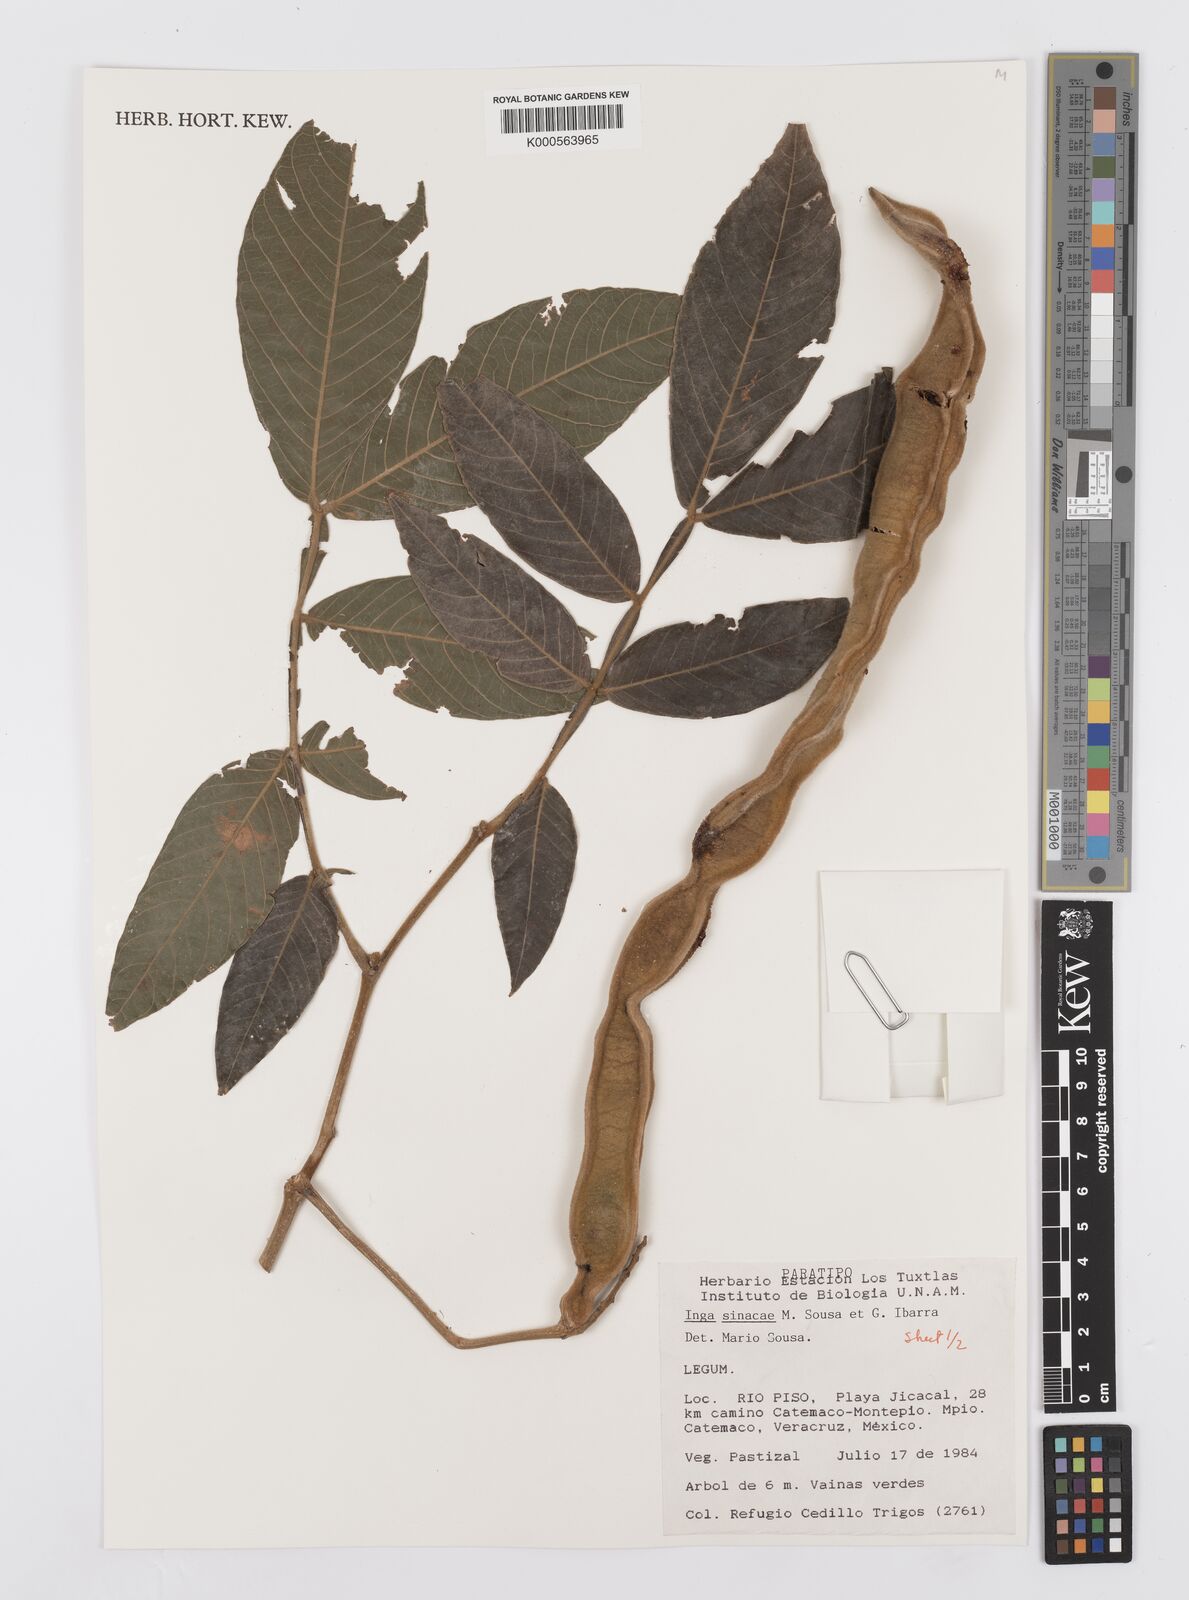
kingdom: Plantae
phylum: Tracheophyta
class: Magnoliopsida
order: Fabales
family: Fabaceae
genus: Inga
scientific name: Inga sinacae
